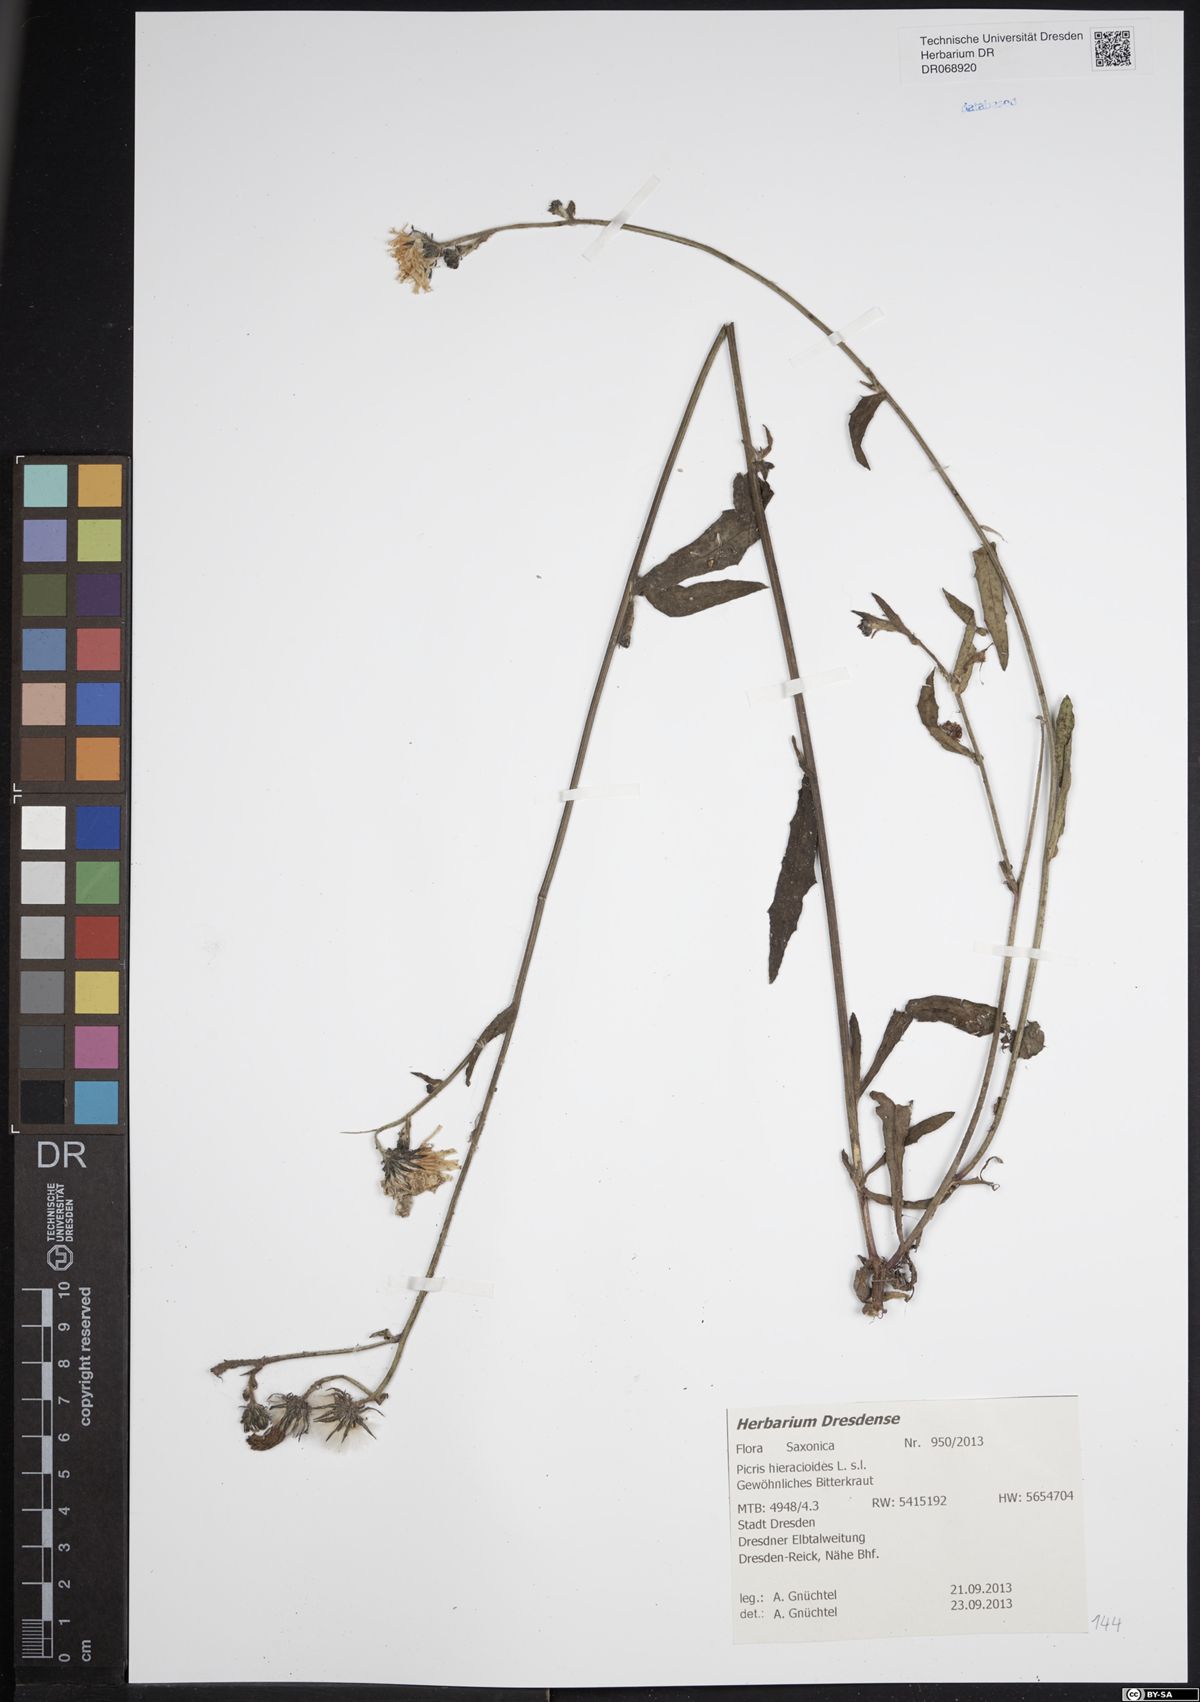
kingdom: Plantae
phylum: Tracheophyta
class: Magnoliopsida
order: Asterales
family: Asteraceae
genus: Picris
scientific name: Picris hieracioides
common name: Hawkweed oxtongue
